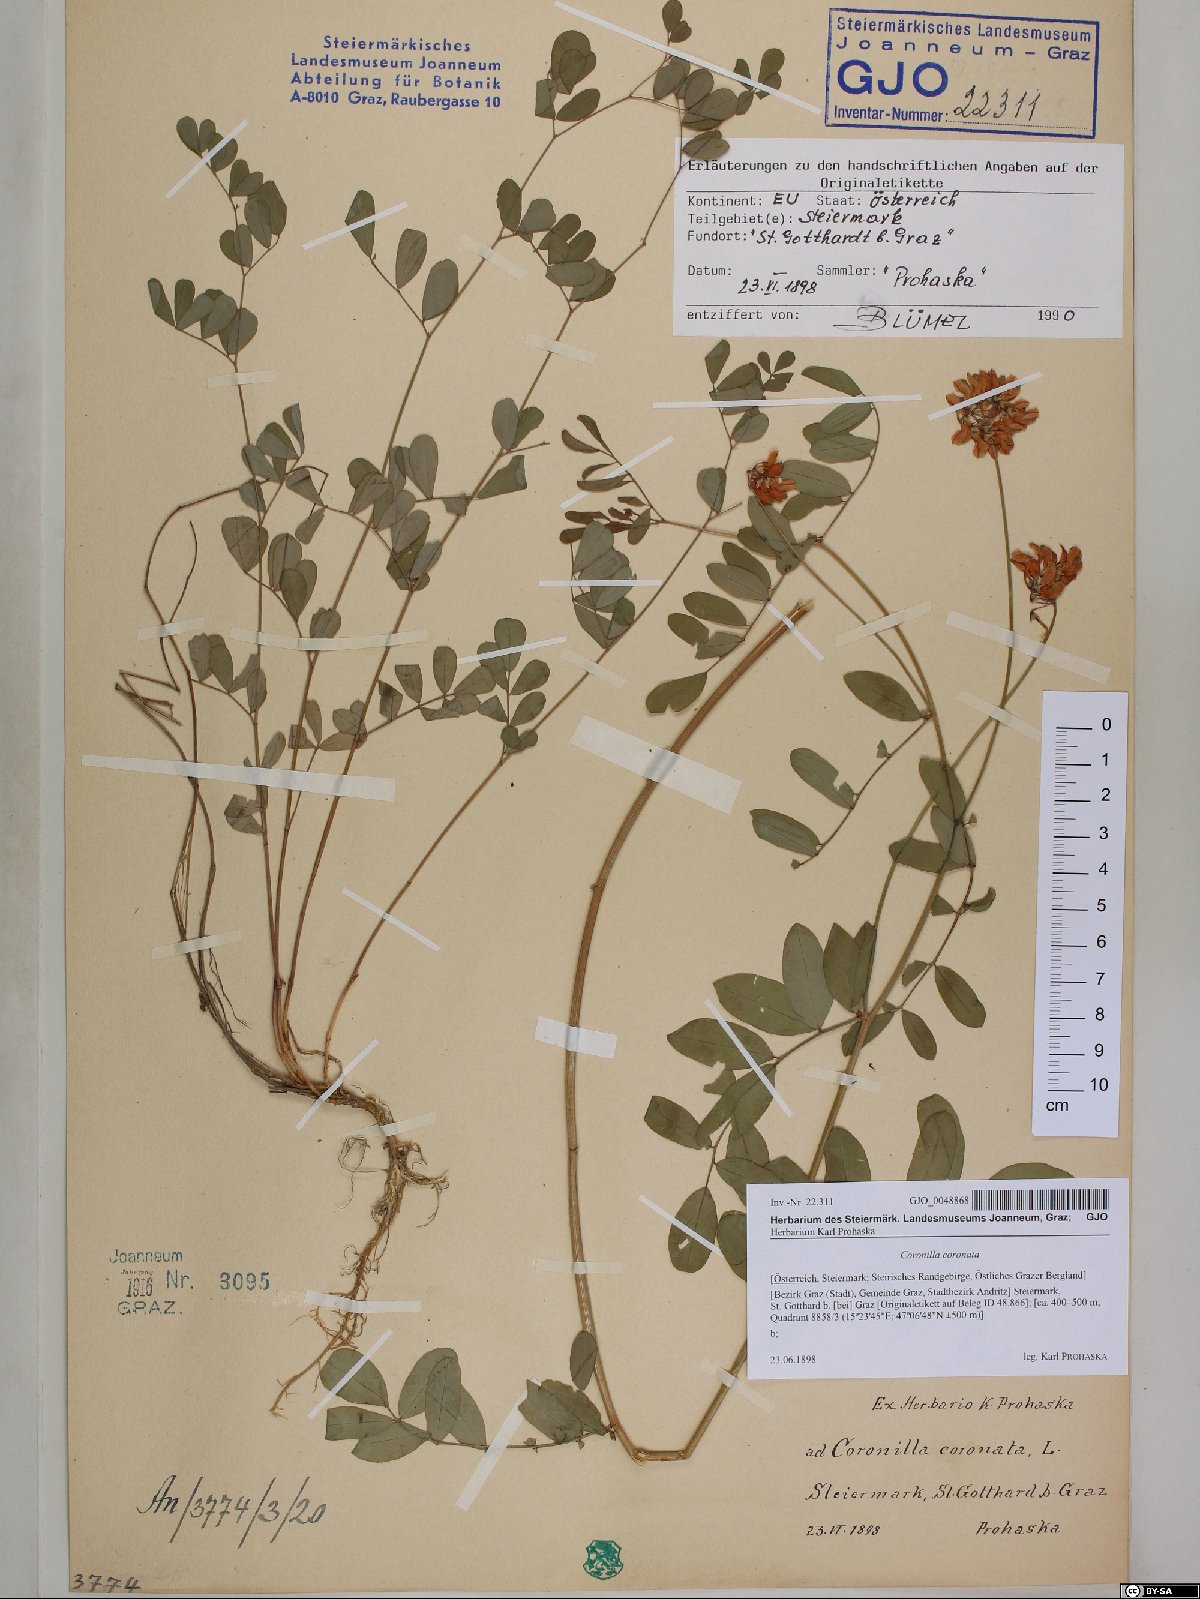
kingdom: Fungi
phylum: Basidiomycota
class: Agaricomycetes
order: Russulales
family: Auriscalpiaceae
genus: Auriscalpium
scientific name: Auriscalpium vulgare
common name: Earpick fungus
